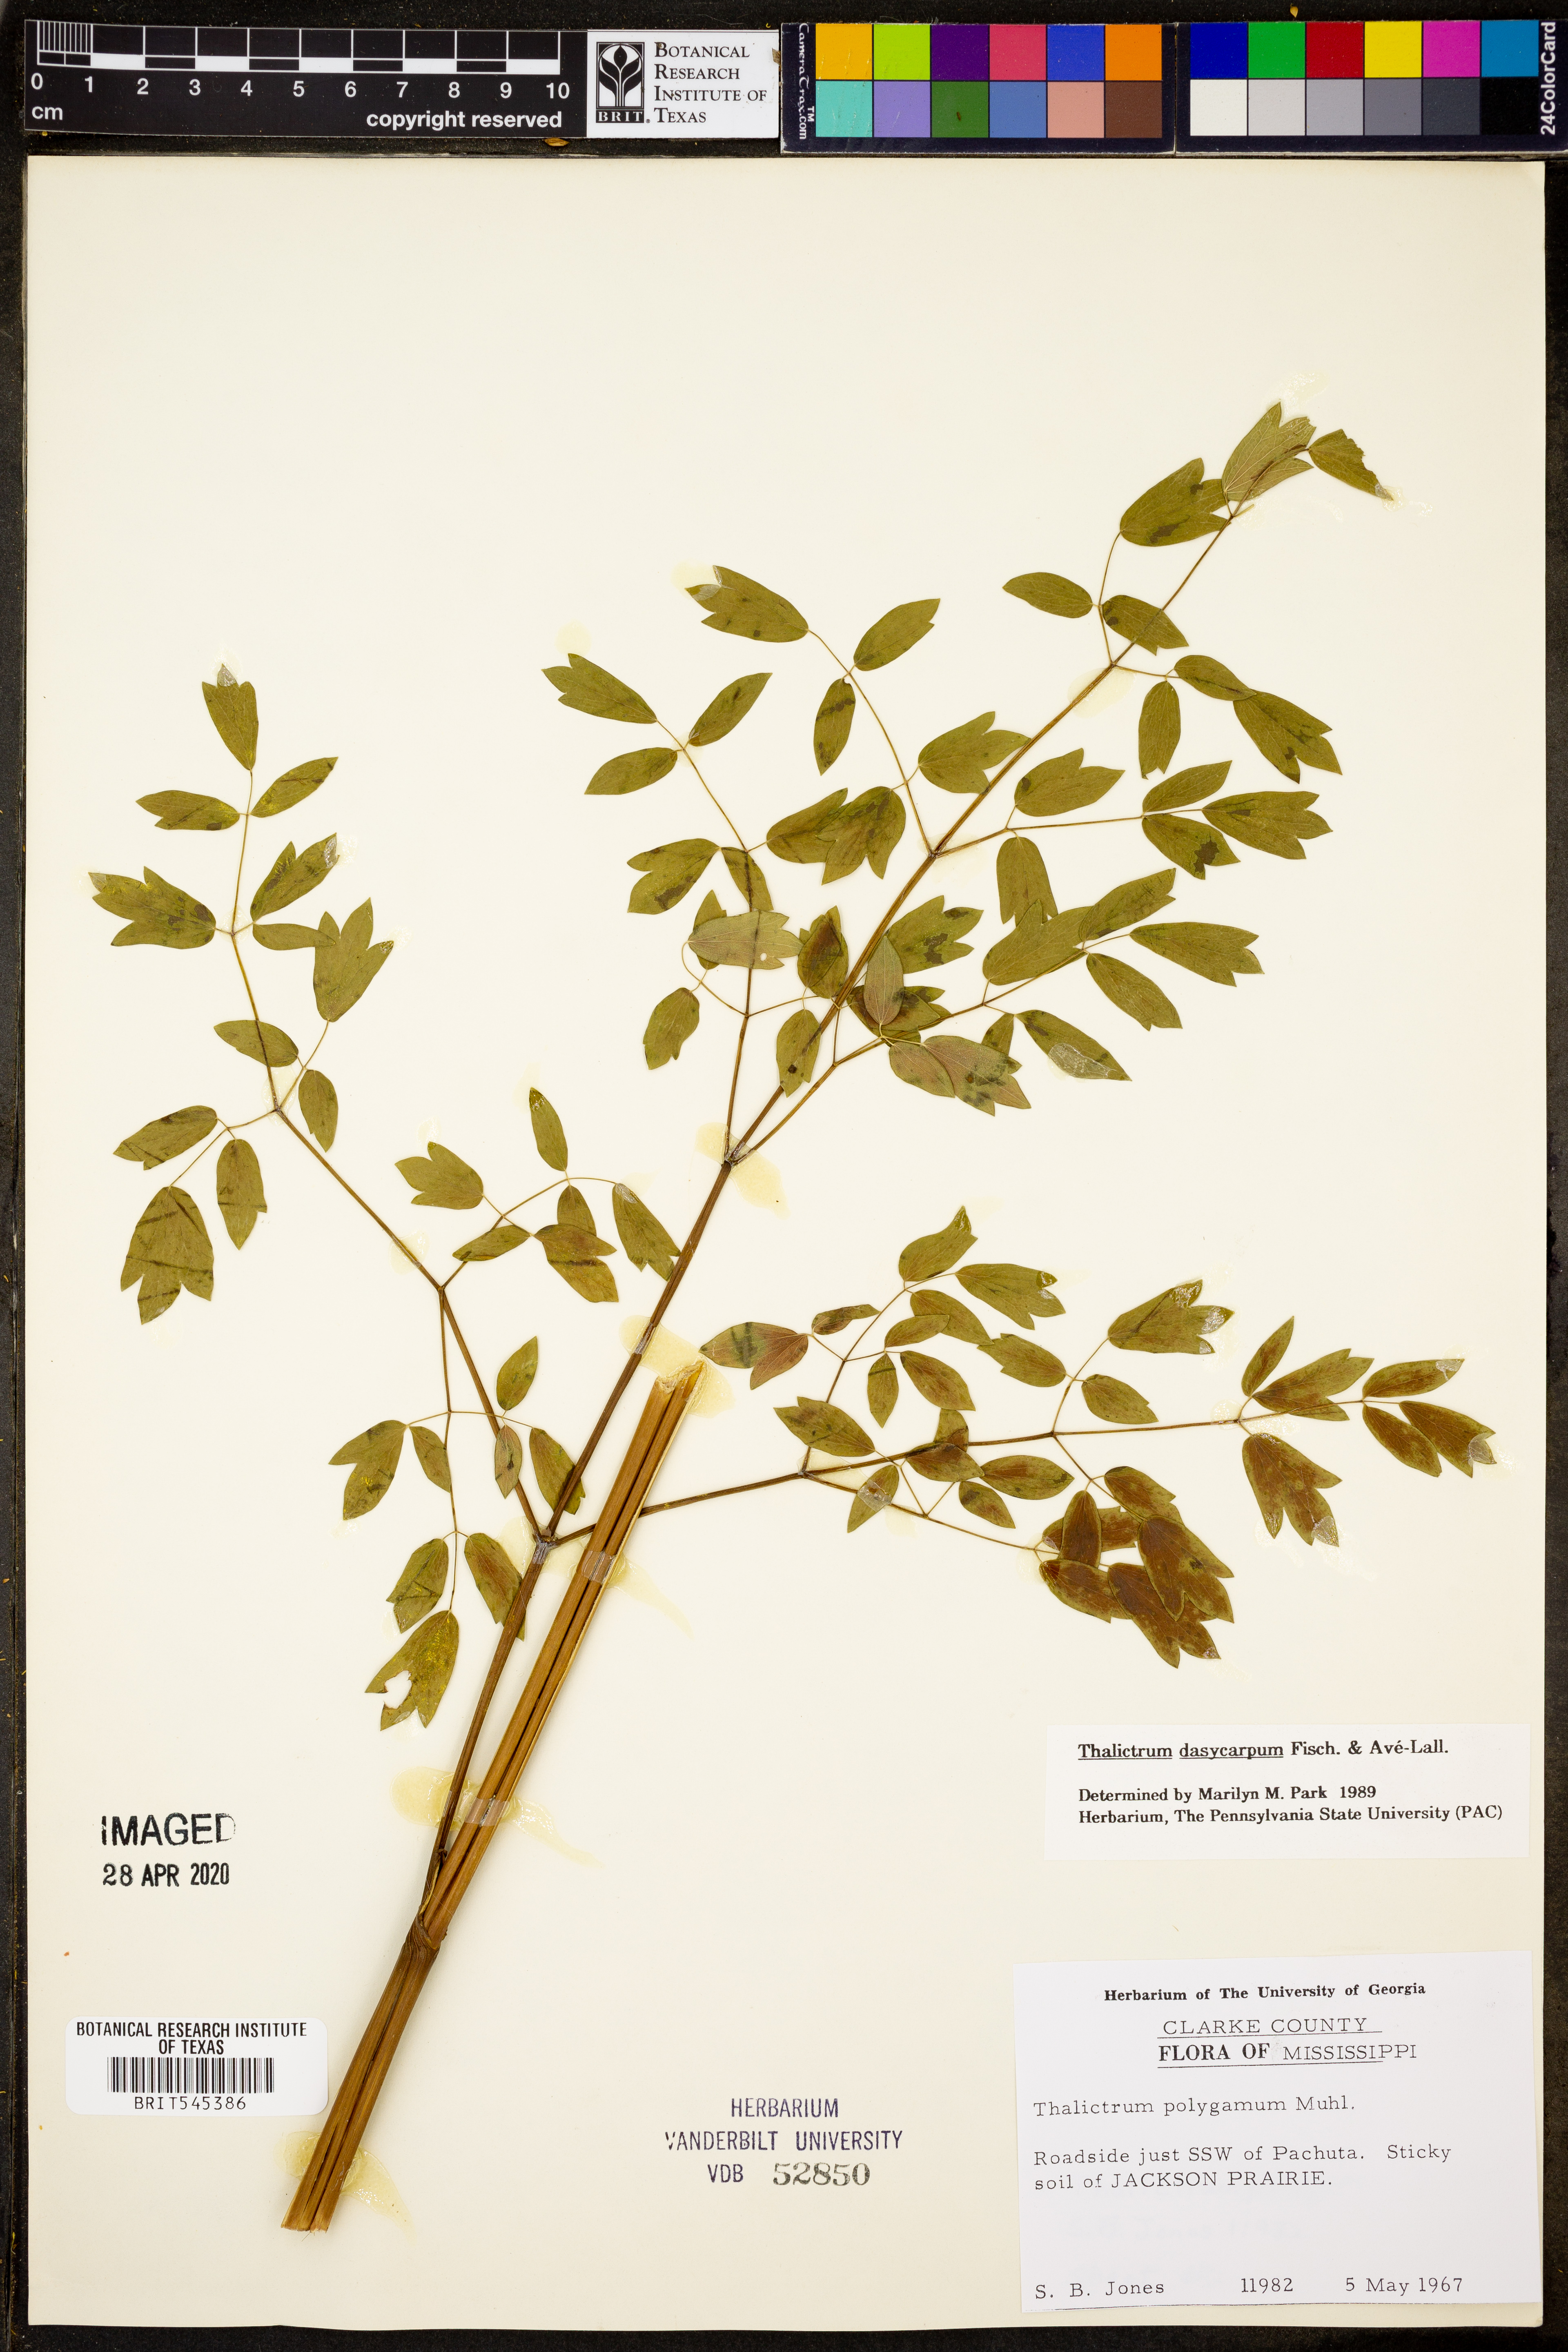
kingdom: Plantae
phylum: Tracheophyta
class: Magnoliopsida
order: Ranunculales
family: Ranunculaceae
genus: Thalictrum
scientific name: Thalictrum dasycarpum
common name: Purple meadow-rue
